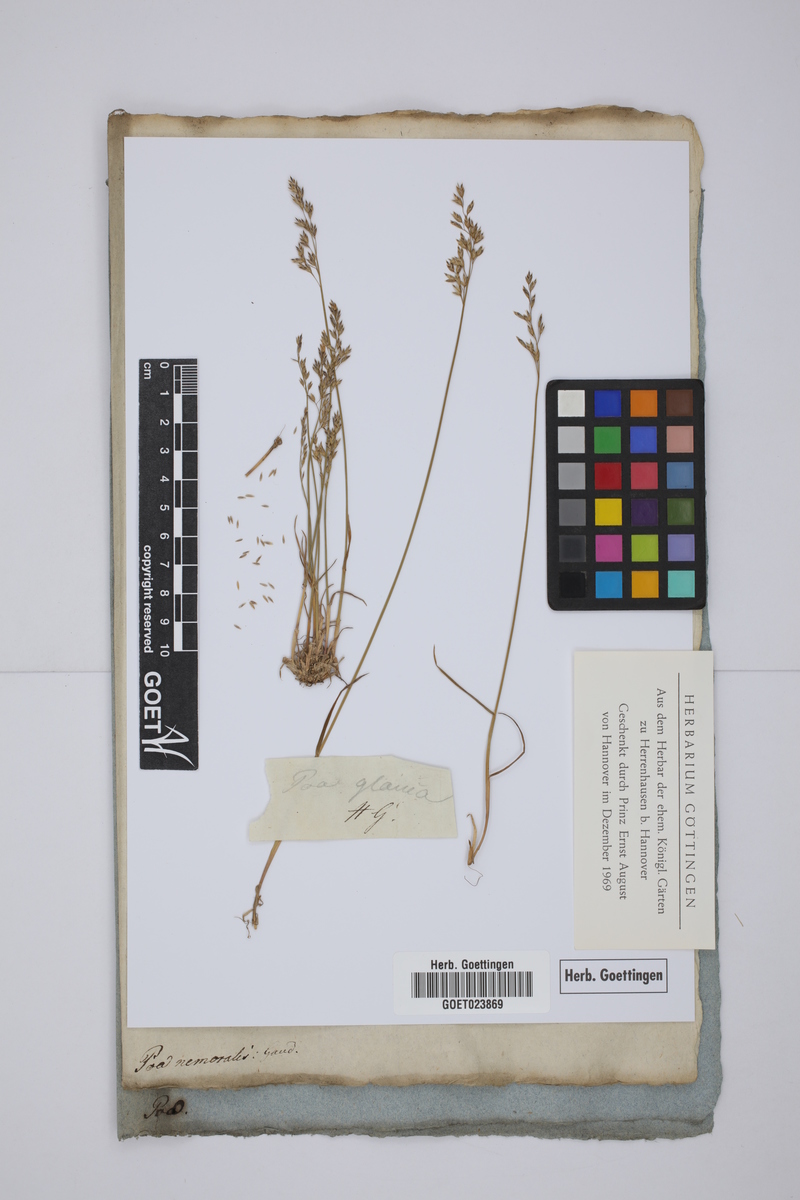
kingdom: Plantae
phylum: Tracheophyta
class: Liliopsida
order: Poales
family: Poaceae
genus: Poa
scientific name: Poa glauca
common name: Glaucous bluegrass
